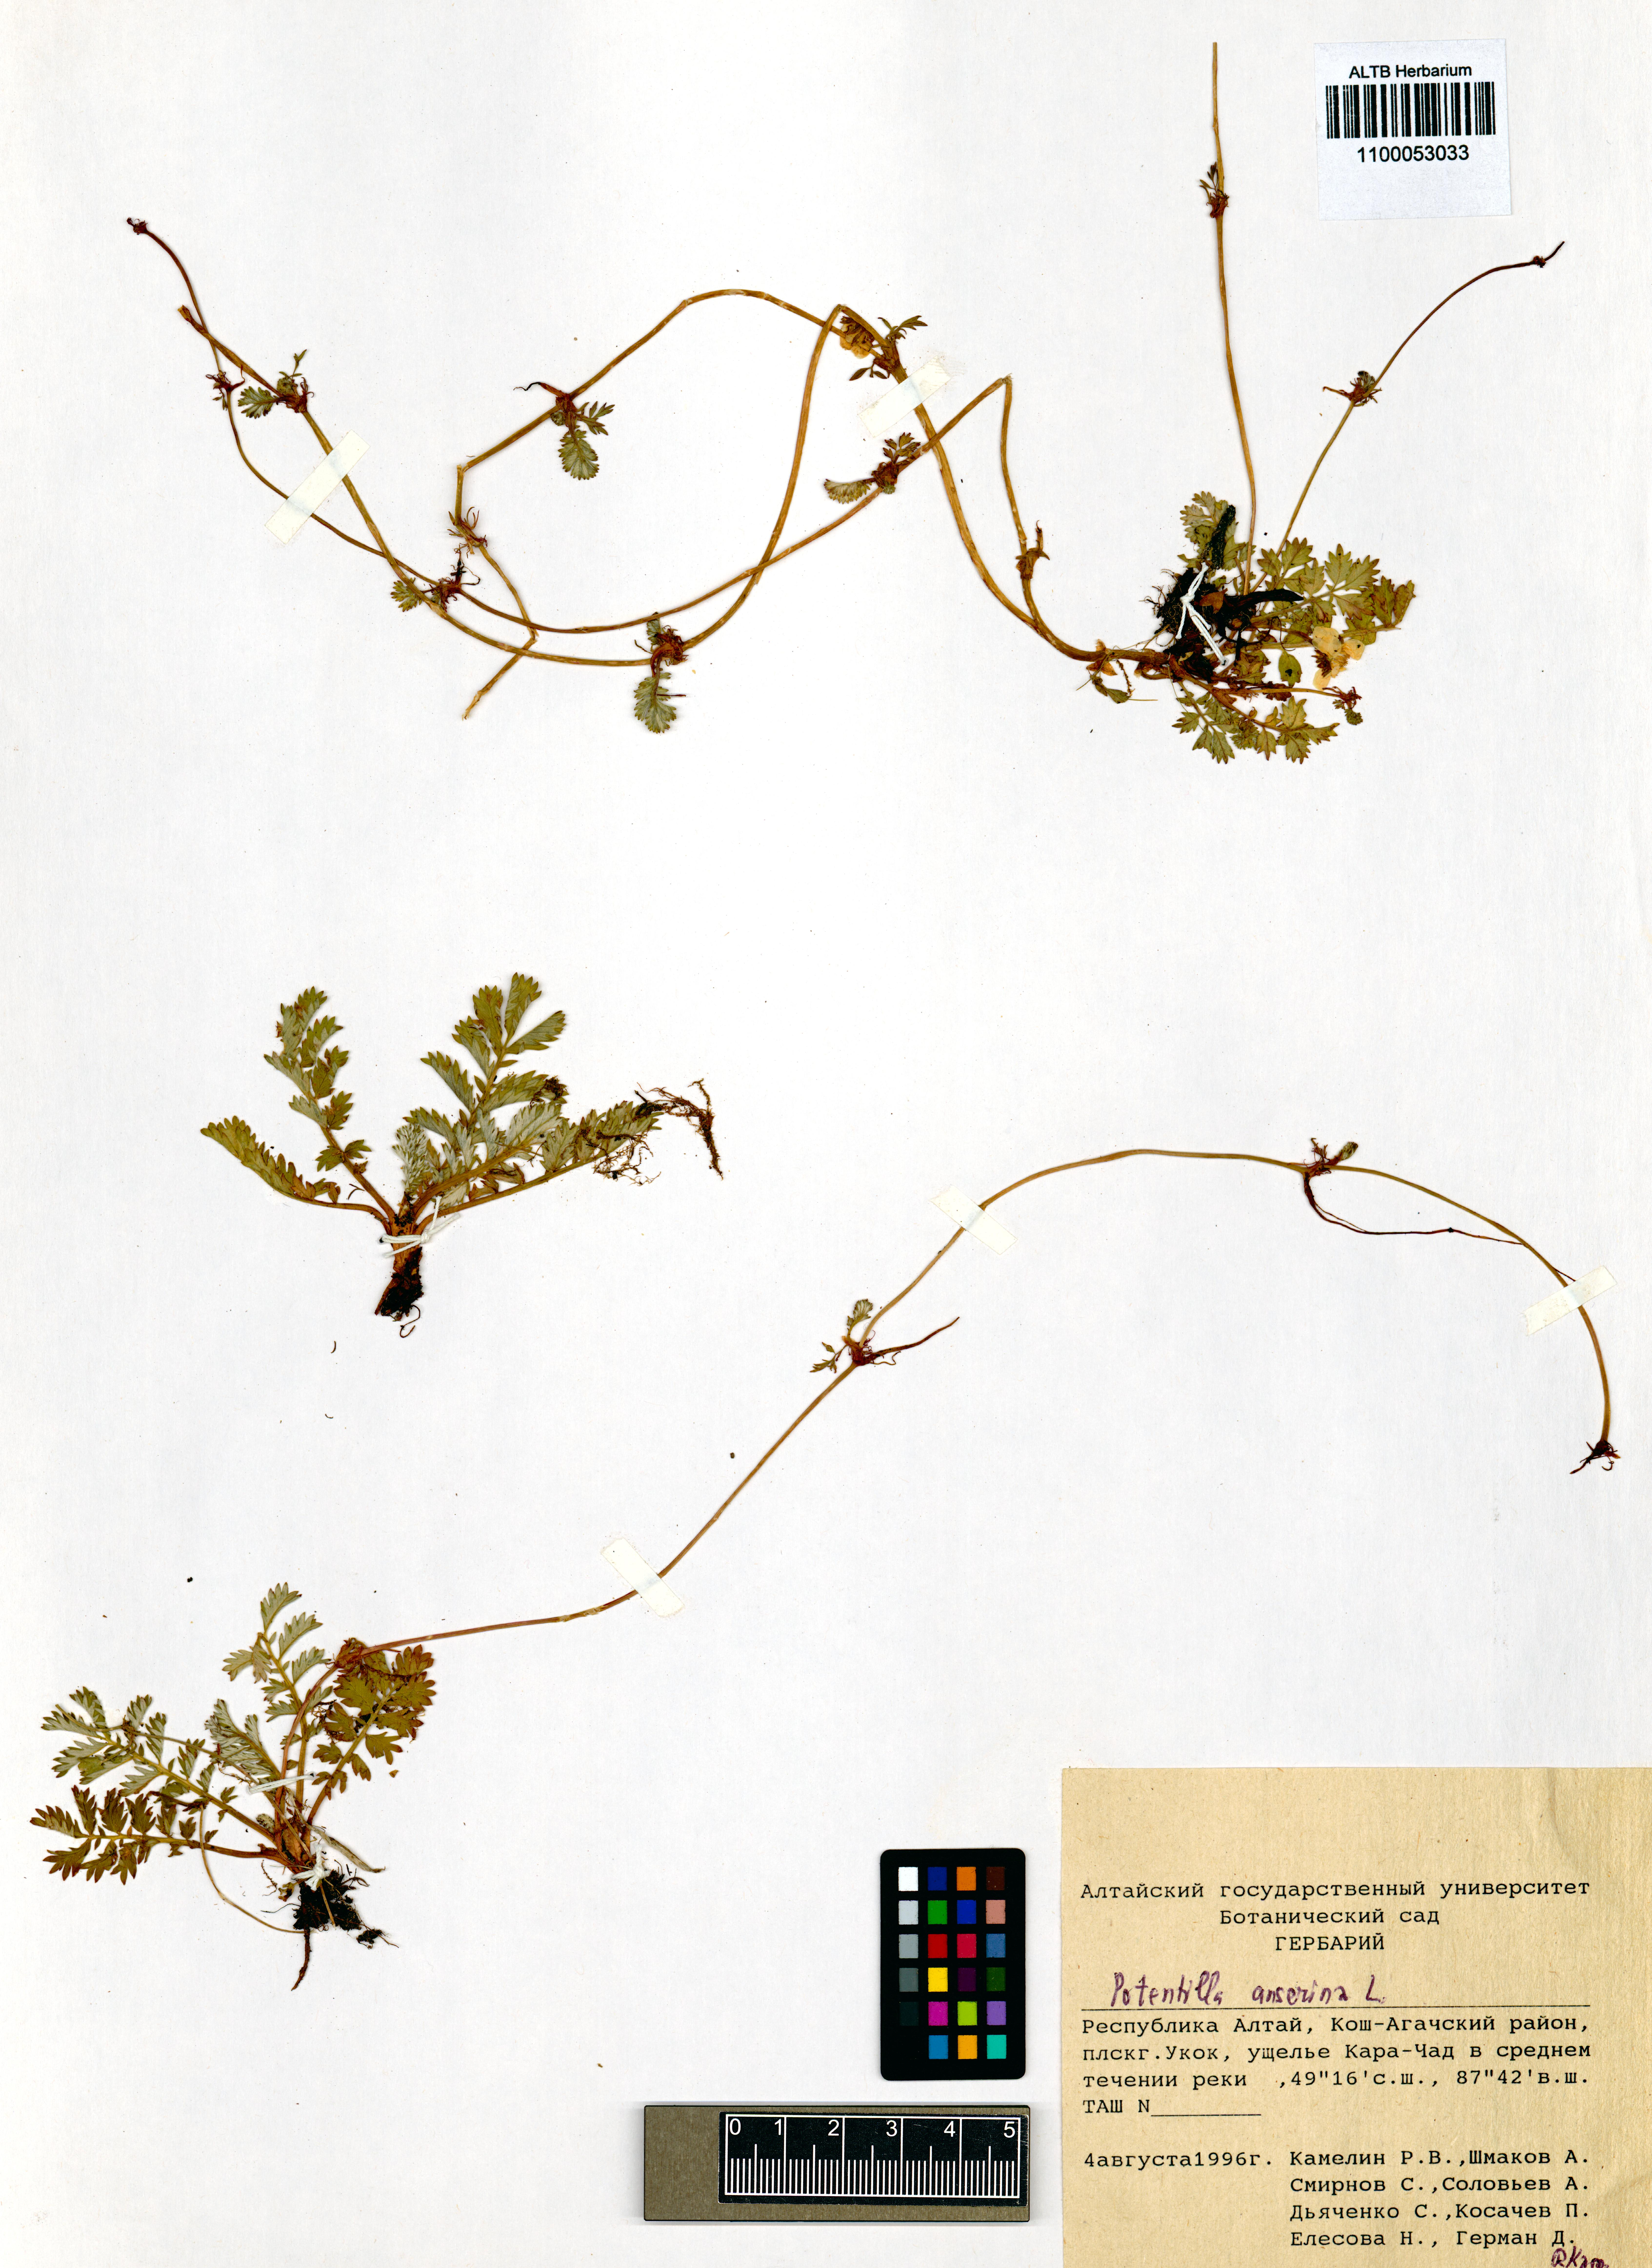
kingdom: Plantae
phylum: Tracheophyta
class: Magnoliopsida
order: Rosales
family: Rosaceae
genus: Argentina
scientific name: Argentina anserina
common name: Common silverweed
